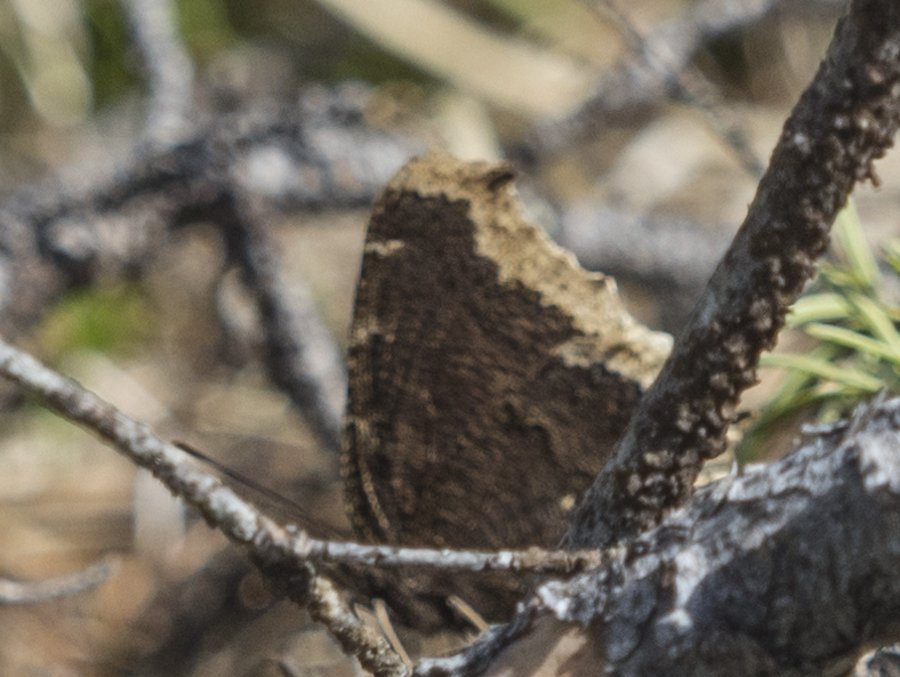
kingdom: Animalia
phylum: Arthropoda
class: Insecta
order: Lepidoptera
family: Nymphalidae
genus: Nymphalis
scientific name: Nymphalis antiopa
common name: Mourning Cloak
